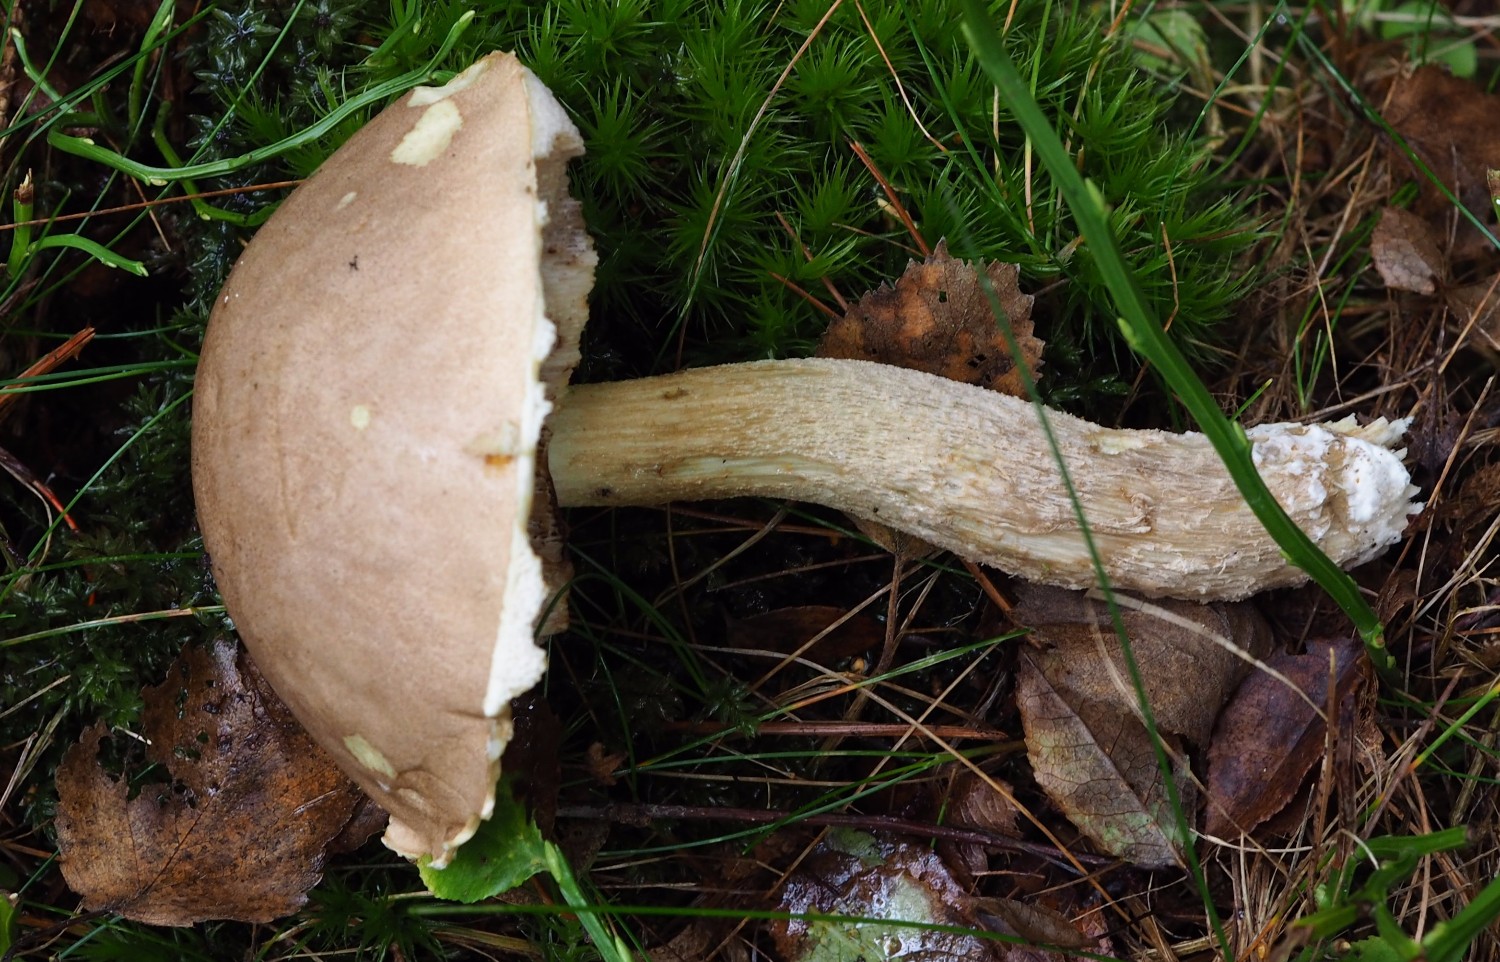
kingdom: Fungi
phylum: Basidiomycota
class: Agaricomycetes
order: Boletales
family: Boletaceae
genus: Leccinum
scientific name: Leccinum
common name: skælrørhat
